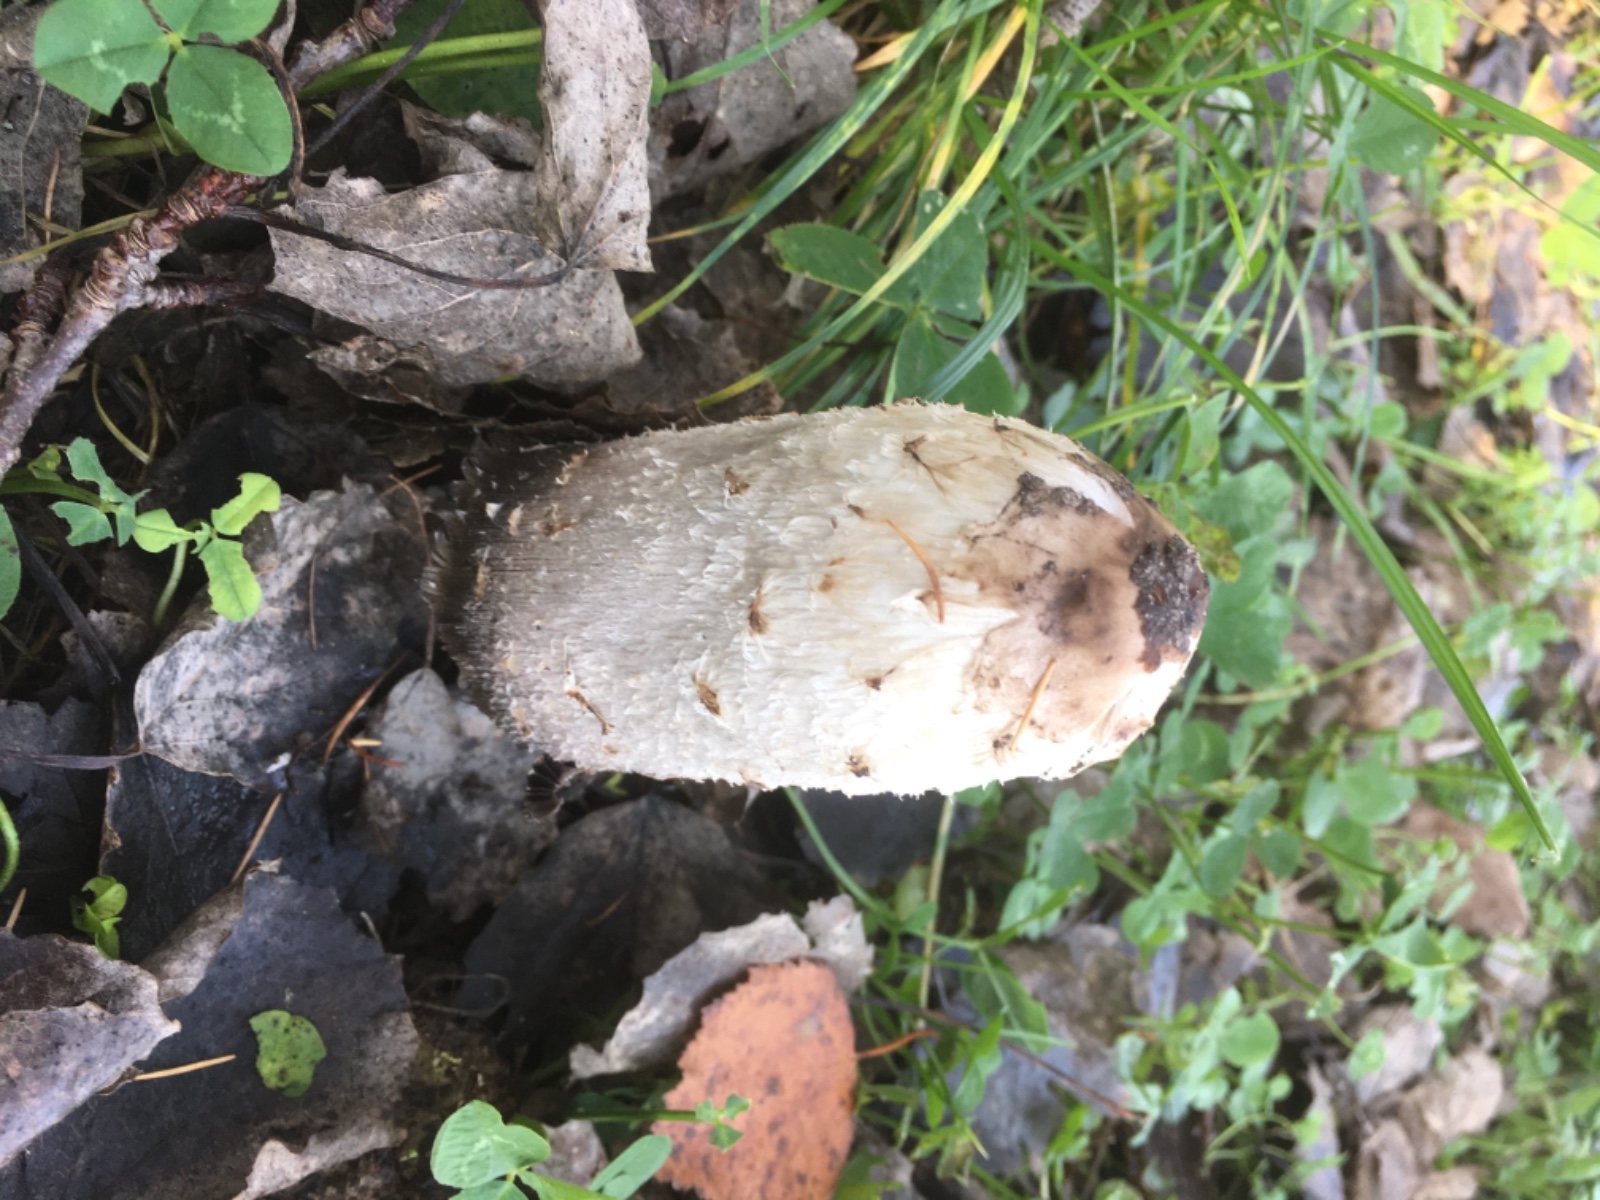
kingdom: Fungi
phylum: Basidiomycota
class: Agaricomycetes
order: Agaricales
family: Agaricaceae
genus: Coprinus
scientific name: Coprinus comatus
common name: stor parykhat
